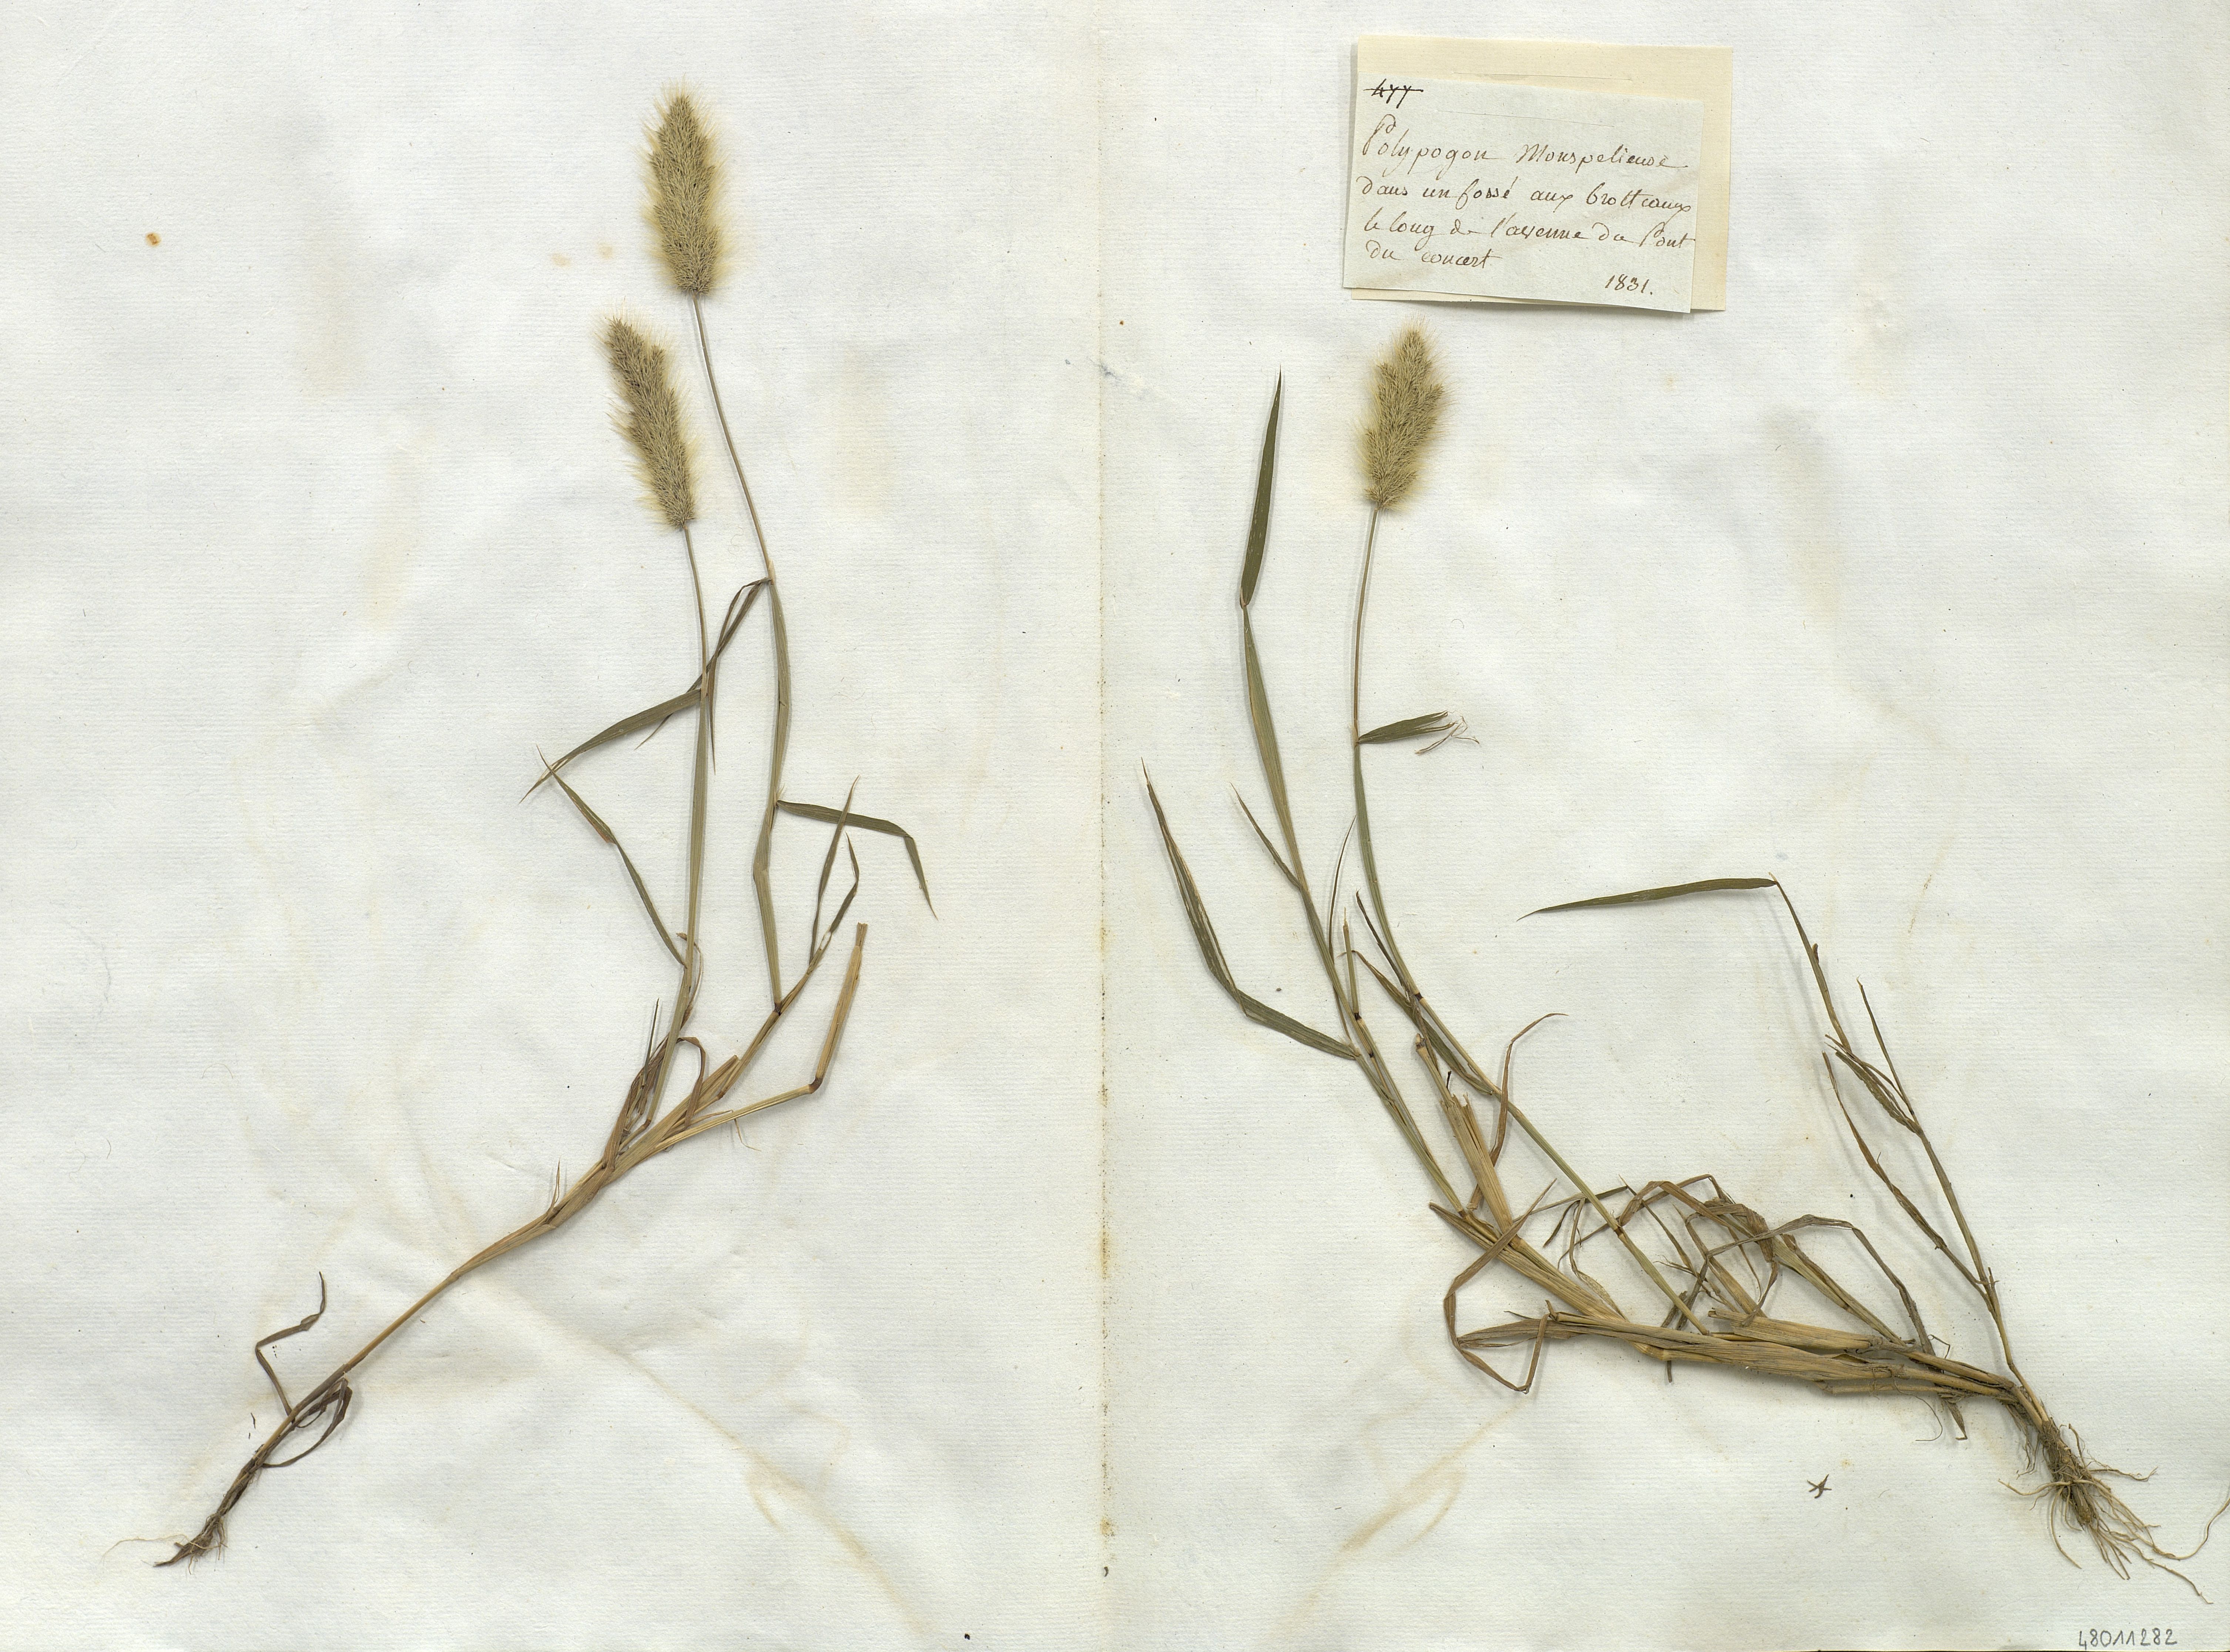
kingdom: Plantae
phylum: Tracheophyta
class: Liliopsida
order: Poales
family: Poaceae
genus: Polypogon
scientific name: Polypogon monspeliensis
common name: Annual rabbitsfoot grass
